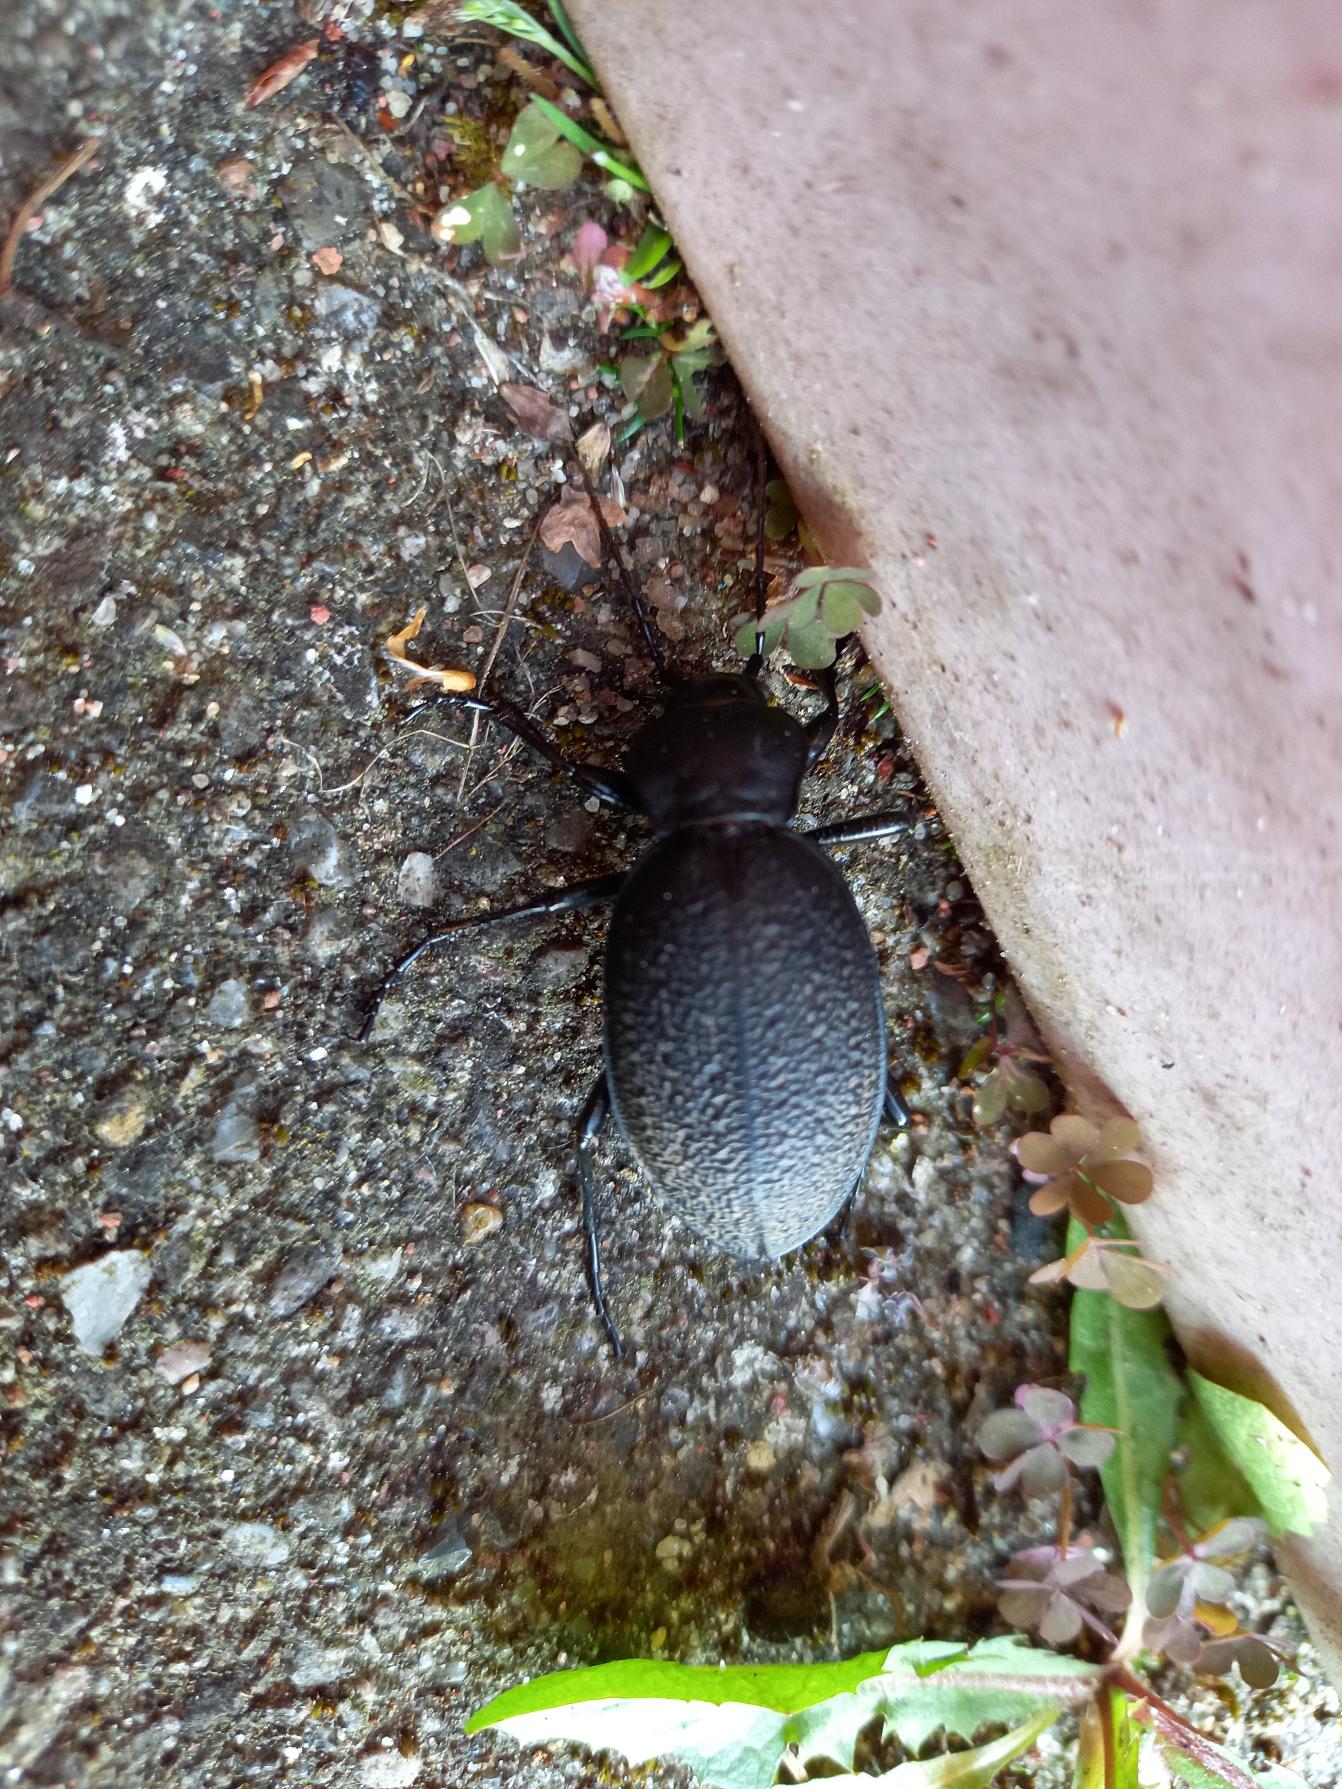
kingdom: Animalia
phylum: Arthropoda
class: Insecta
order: Coleoptera
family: Carabidae
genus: Carabus
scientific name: Carabus coriaceus
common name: Læderløber
